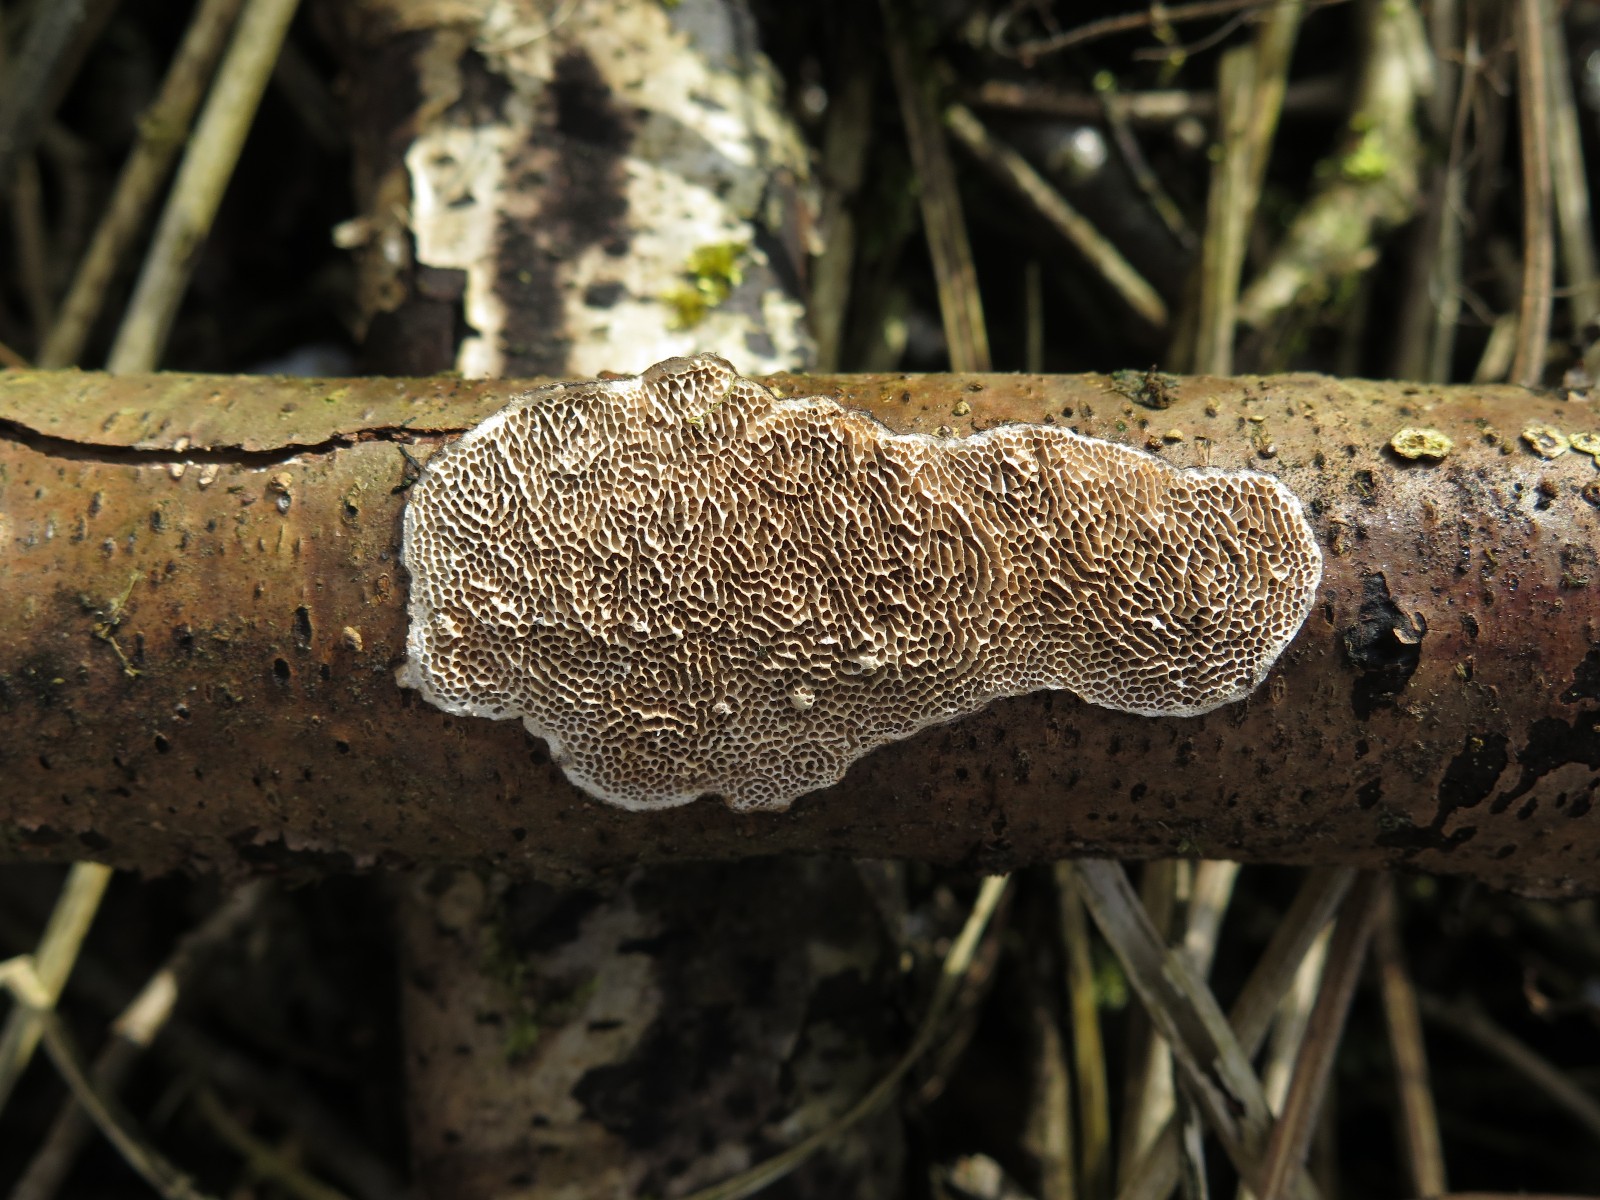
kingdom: Fungi
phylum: Basidiomycota
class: Agaricomycetes
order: Polyporales
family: Polyporaceae
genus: Podofomes
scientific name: Podofomes mollis
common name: blød begporesvamp
